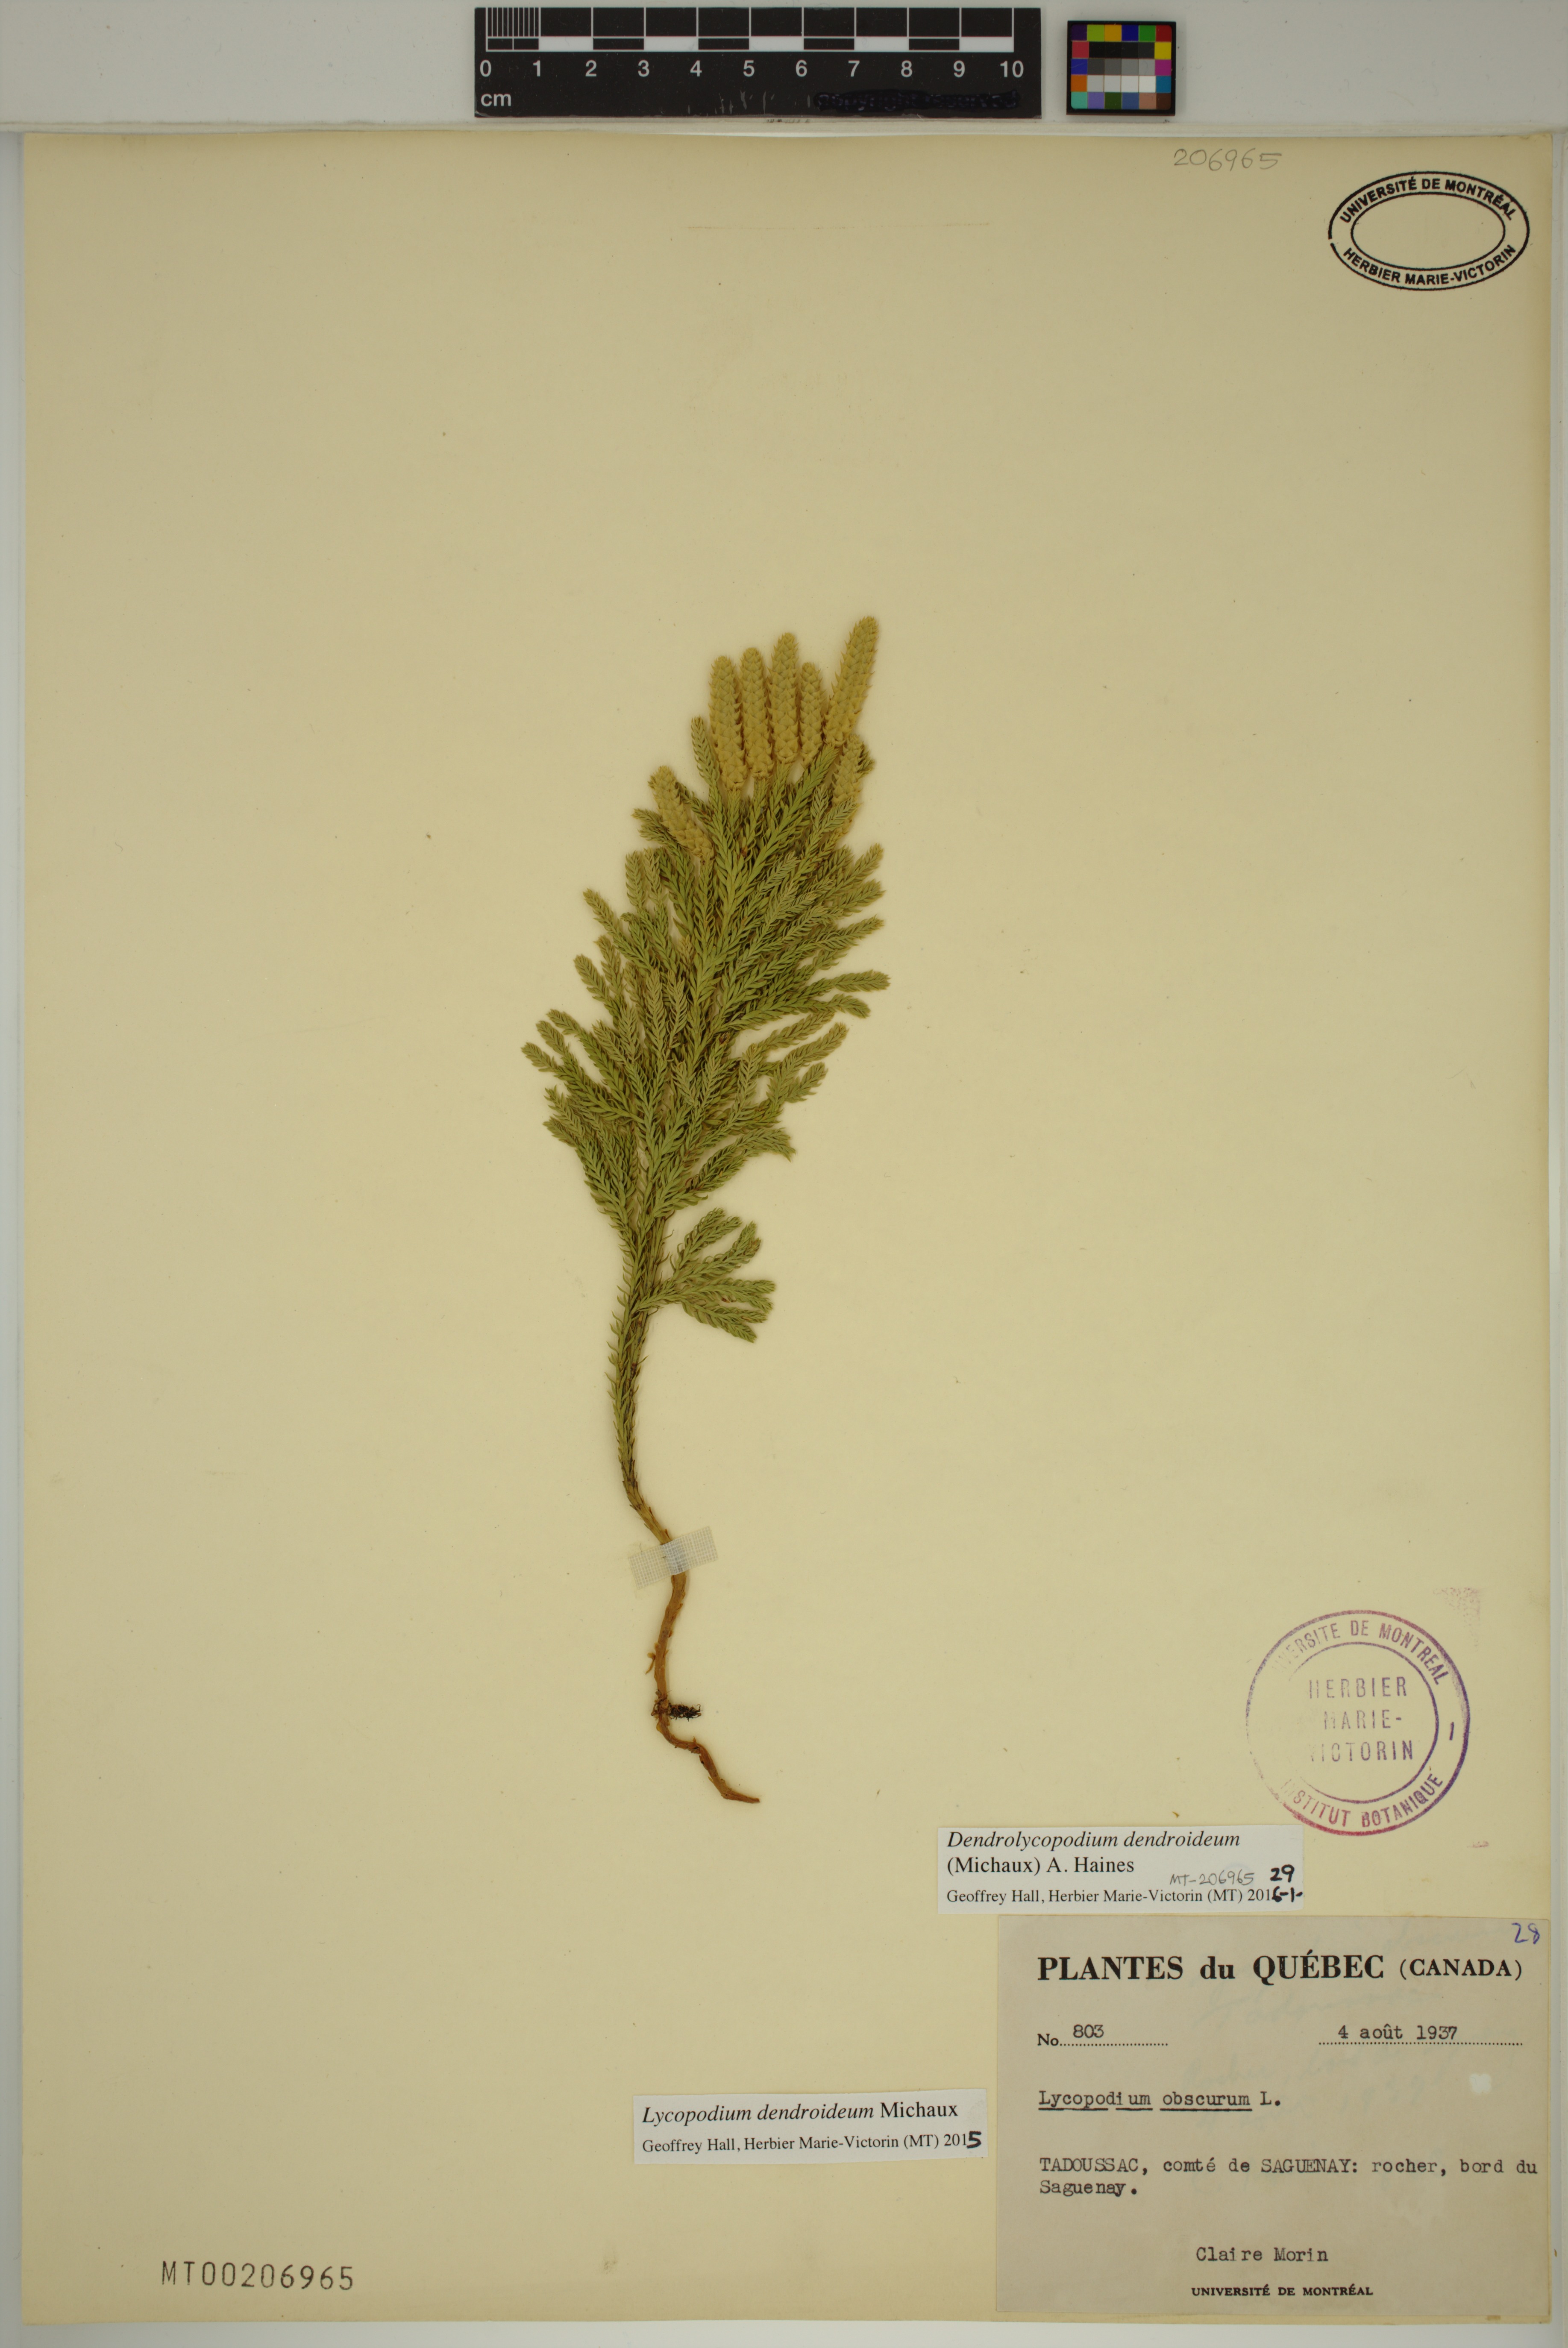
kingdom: Plantae
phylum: Tracheophyta
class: Lycopodiopsida
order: Lycopodiales
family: Lycopodiaceae
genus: Dendrolycopodium
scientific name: Dendrolycopodium dendroideum
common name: Northern tree-clubmoss
